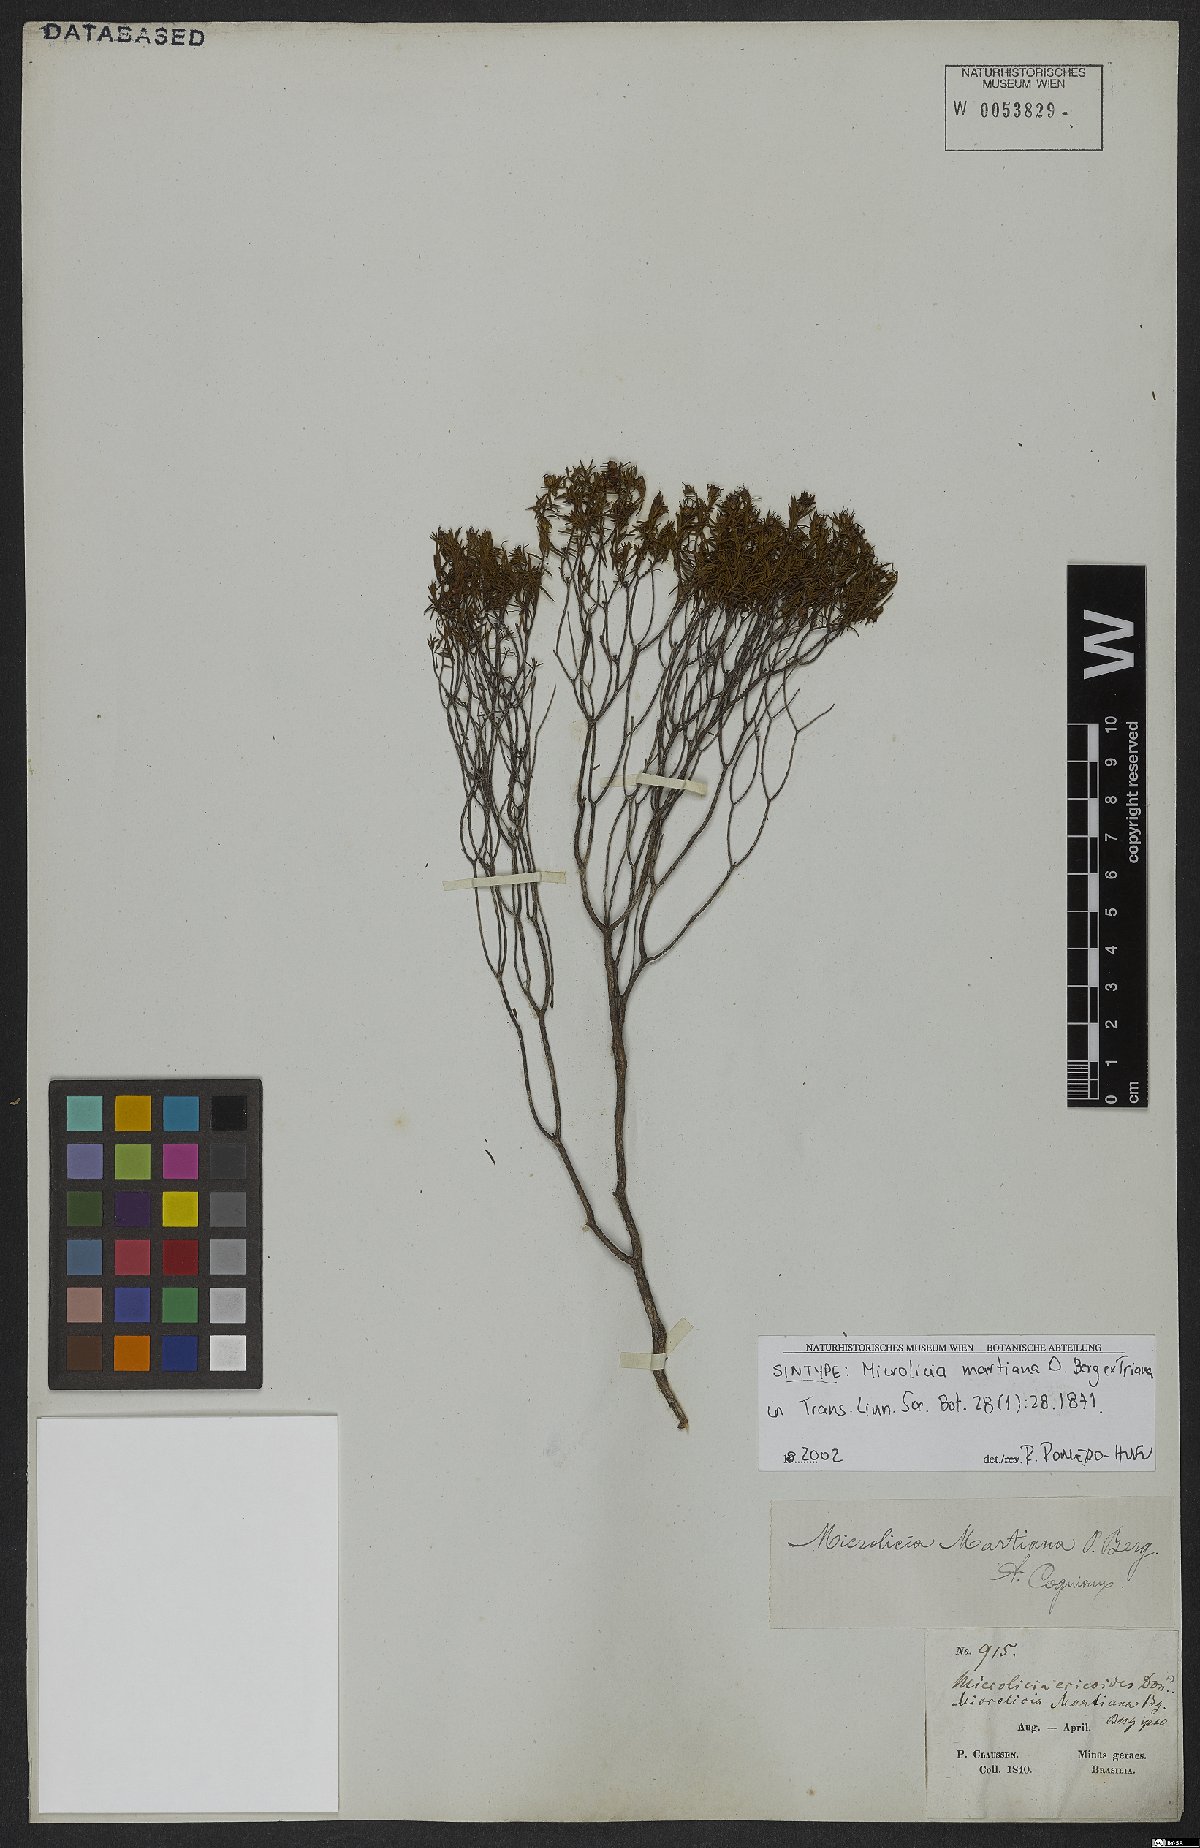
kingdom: Plantae
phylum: Tracheophyta
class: Magnoliopsida
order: Myrtales
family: Melastomataceae
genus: Microlicia
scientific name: Microlicia martiana
